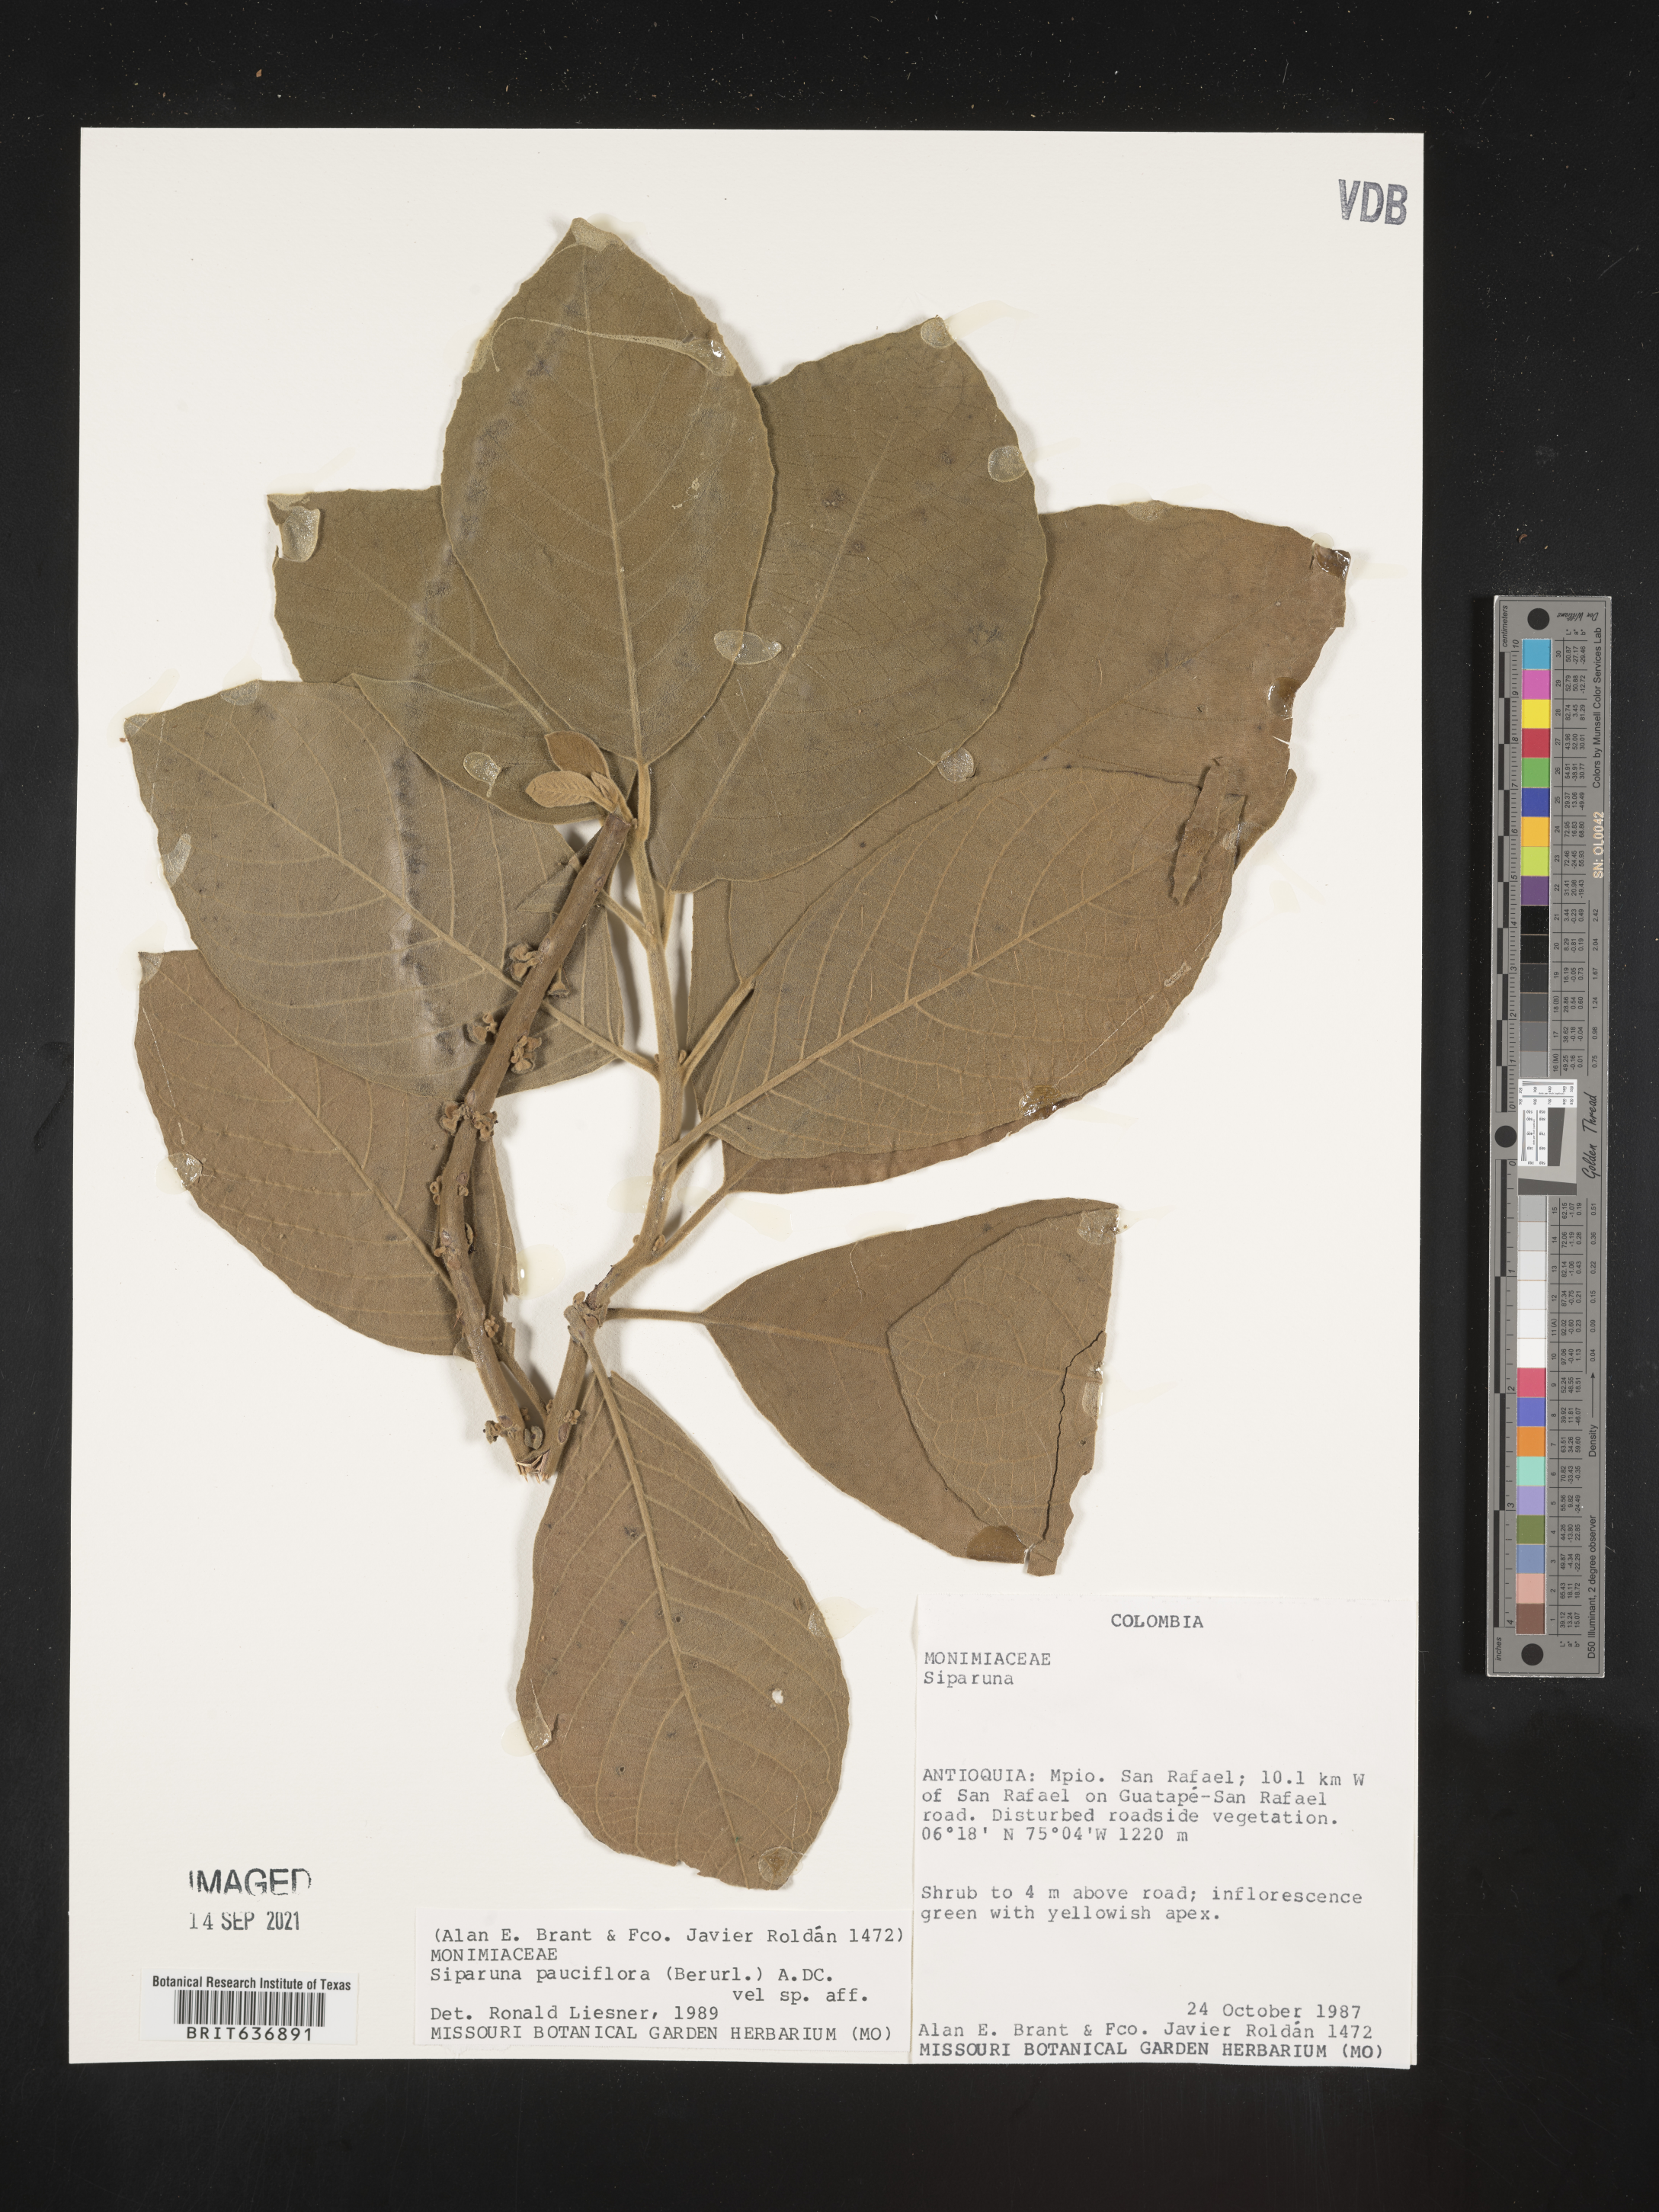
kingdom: Plantae
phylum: Tracheophyta
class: Magnoliopsida
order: Laurales
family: Siparunaceae
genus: Siparuna
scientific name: Siparuna
